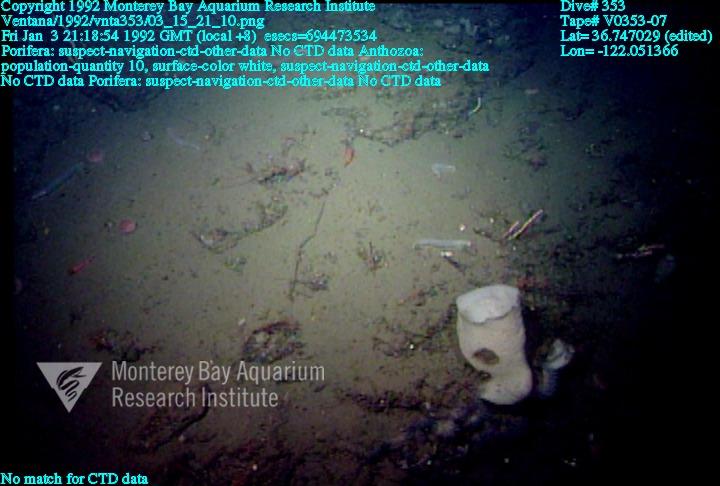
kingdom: Animalia
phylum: Porifera
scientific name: Porifera
